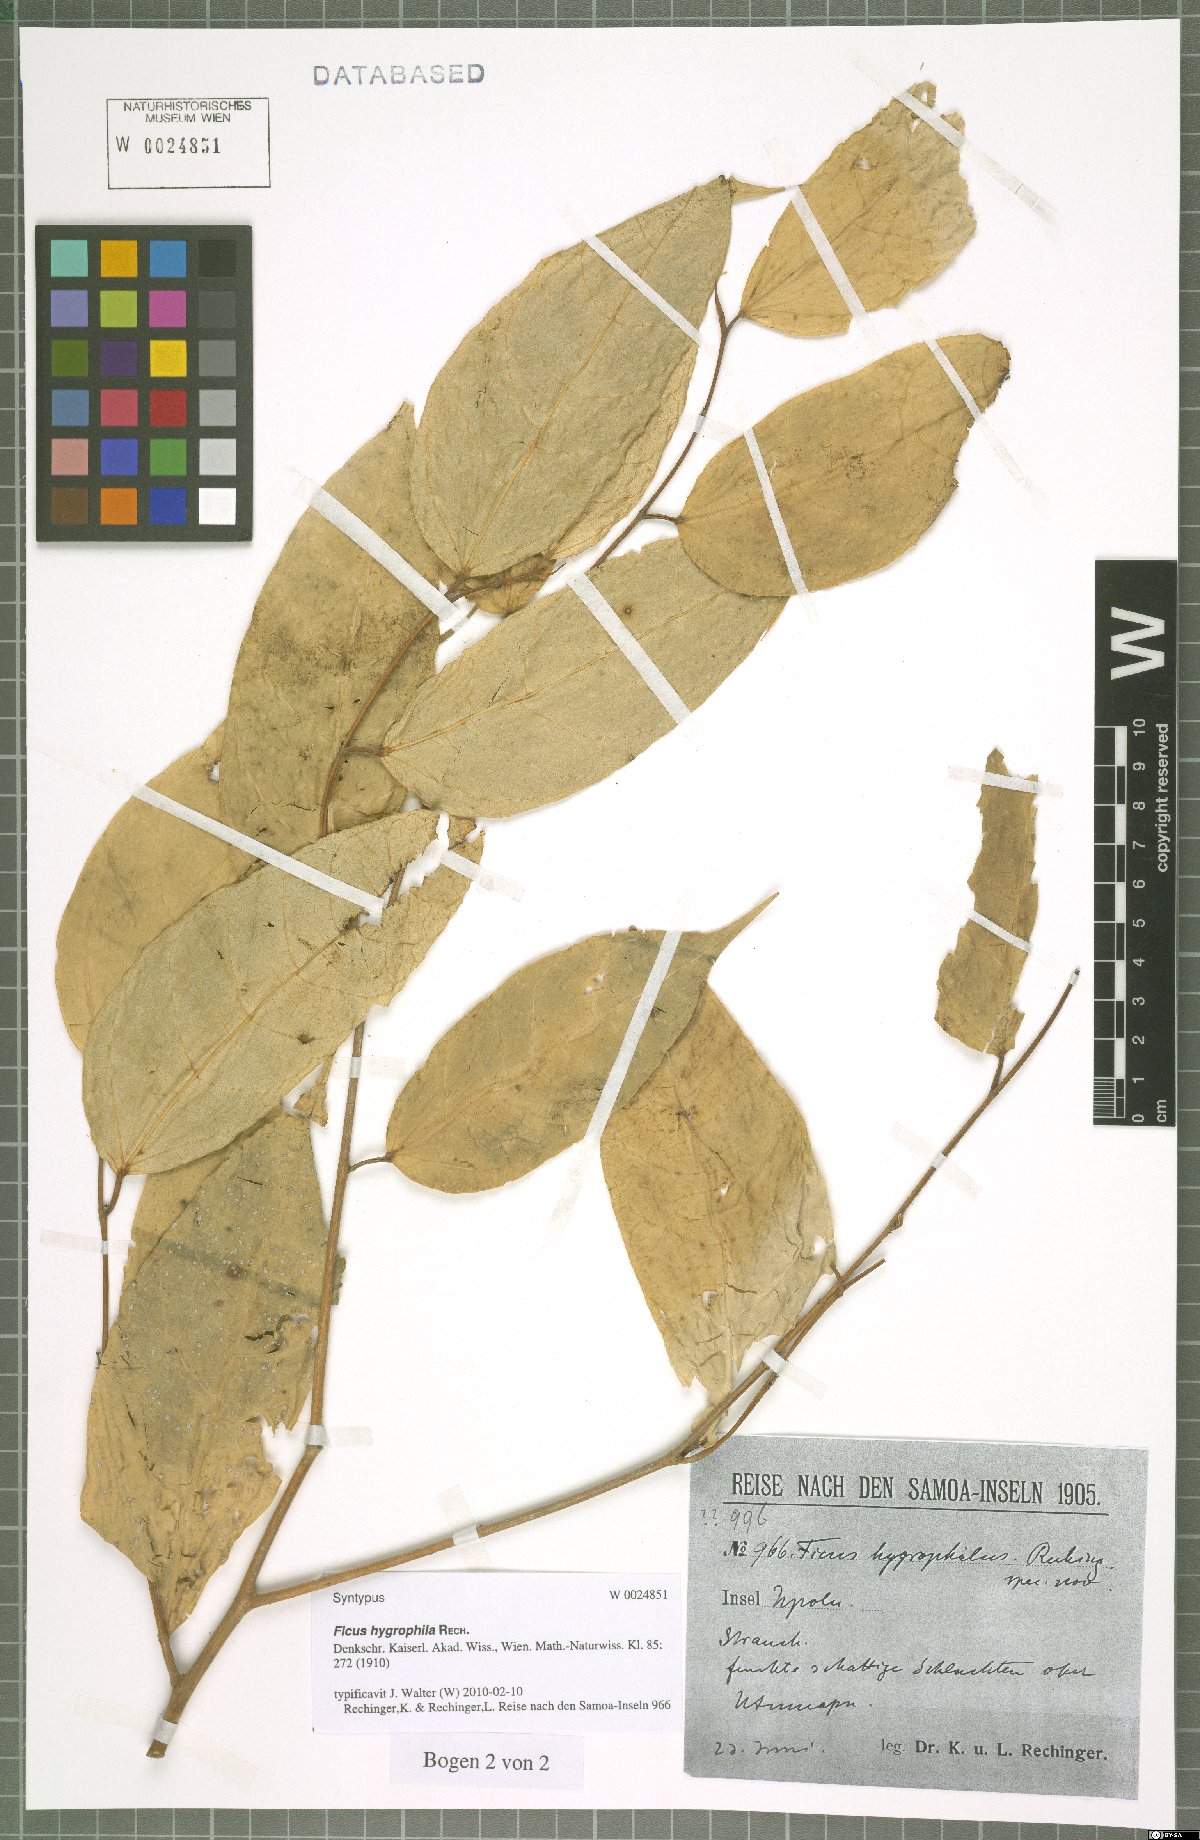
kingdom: Plantae
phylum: Tracheophyta
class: Magnoliopsida
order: Rosales
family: Moraceae
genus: Ficus
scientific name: Ficus godeffroyi
